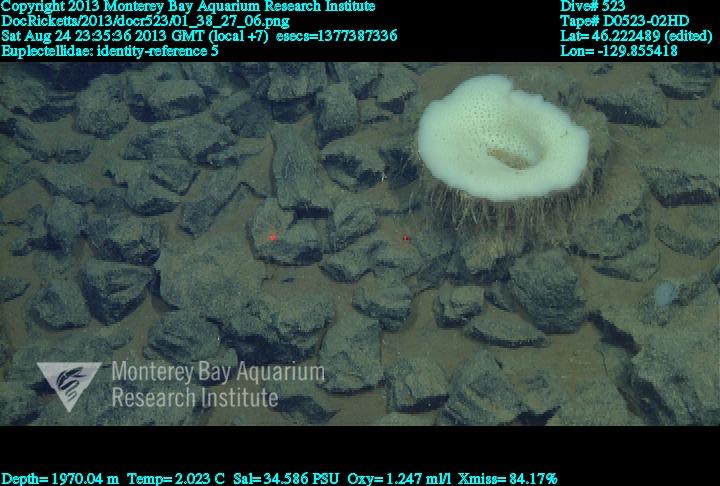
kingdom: Animalia
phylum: Porifera
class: Hexactinellida
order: Lyssacinosida
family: Euplectellidae
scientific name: Euplectellidae
